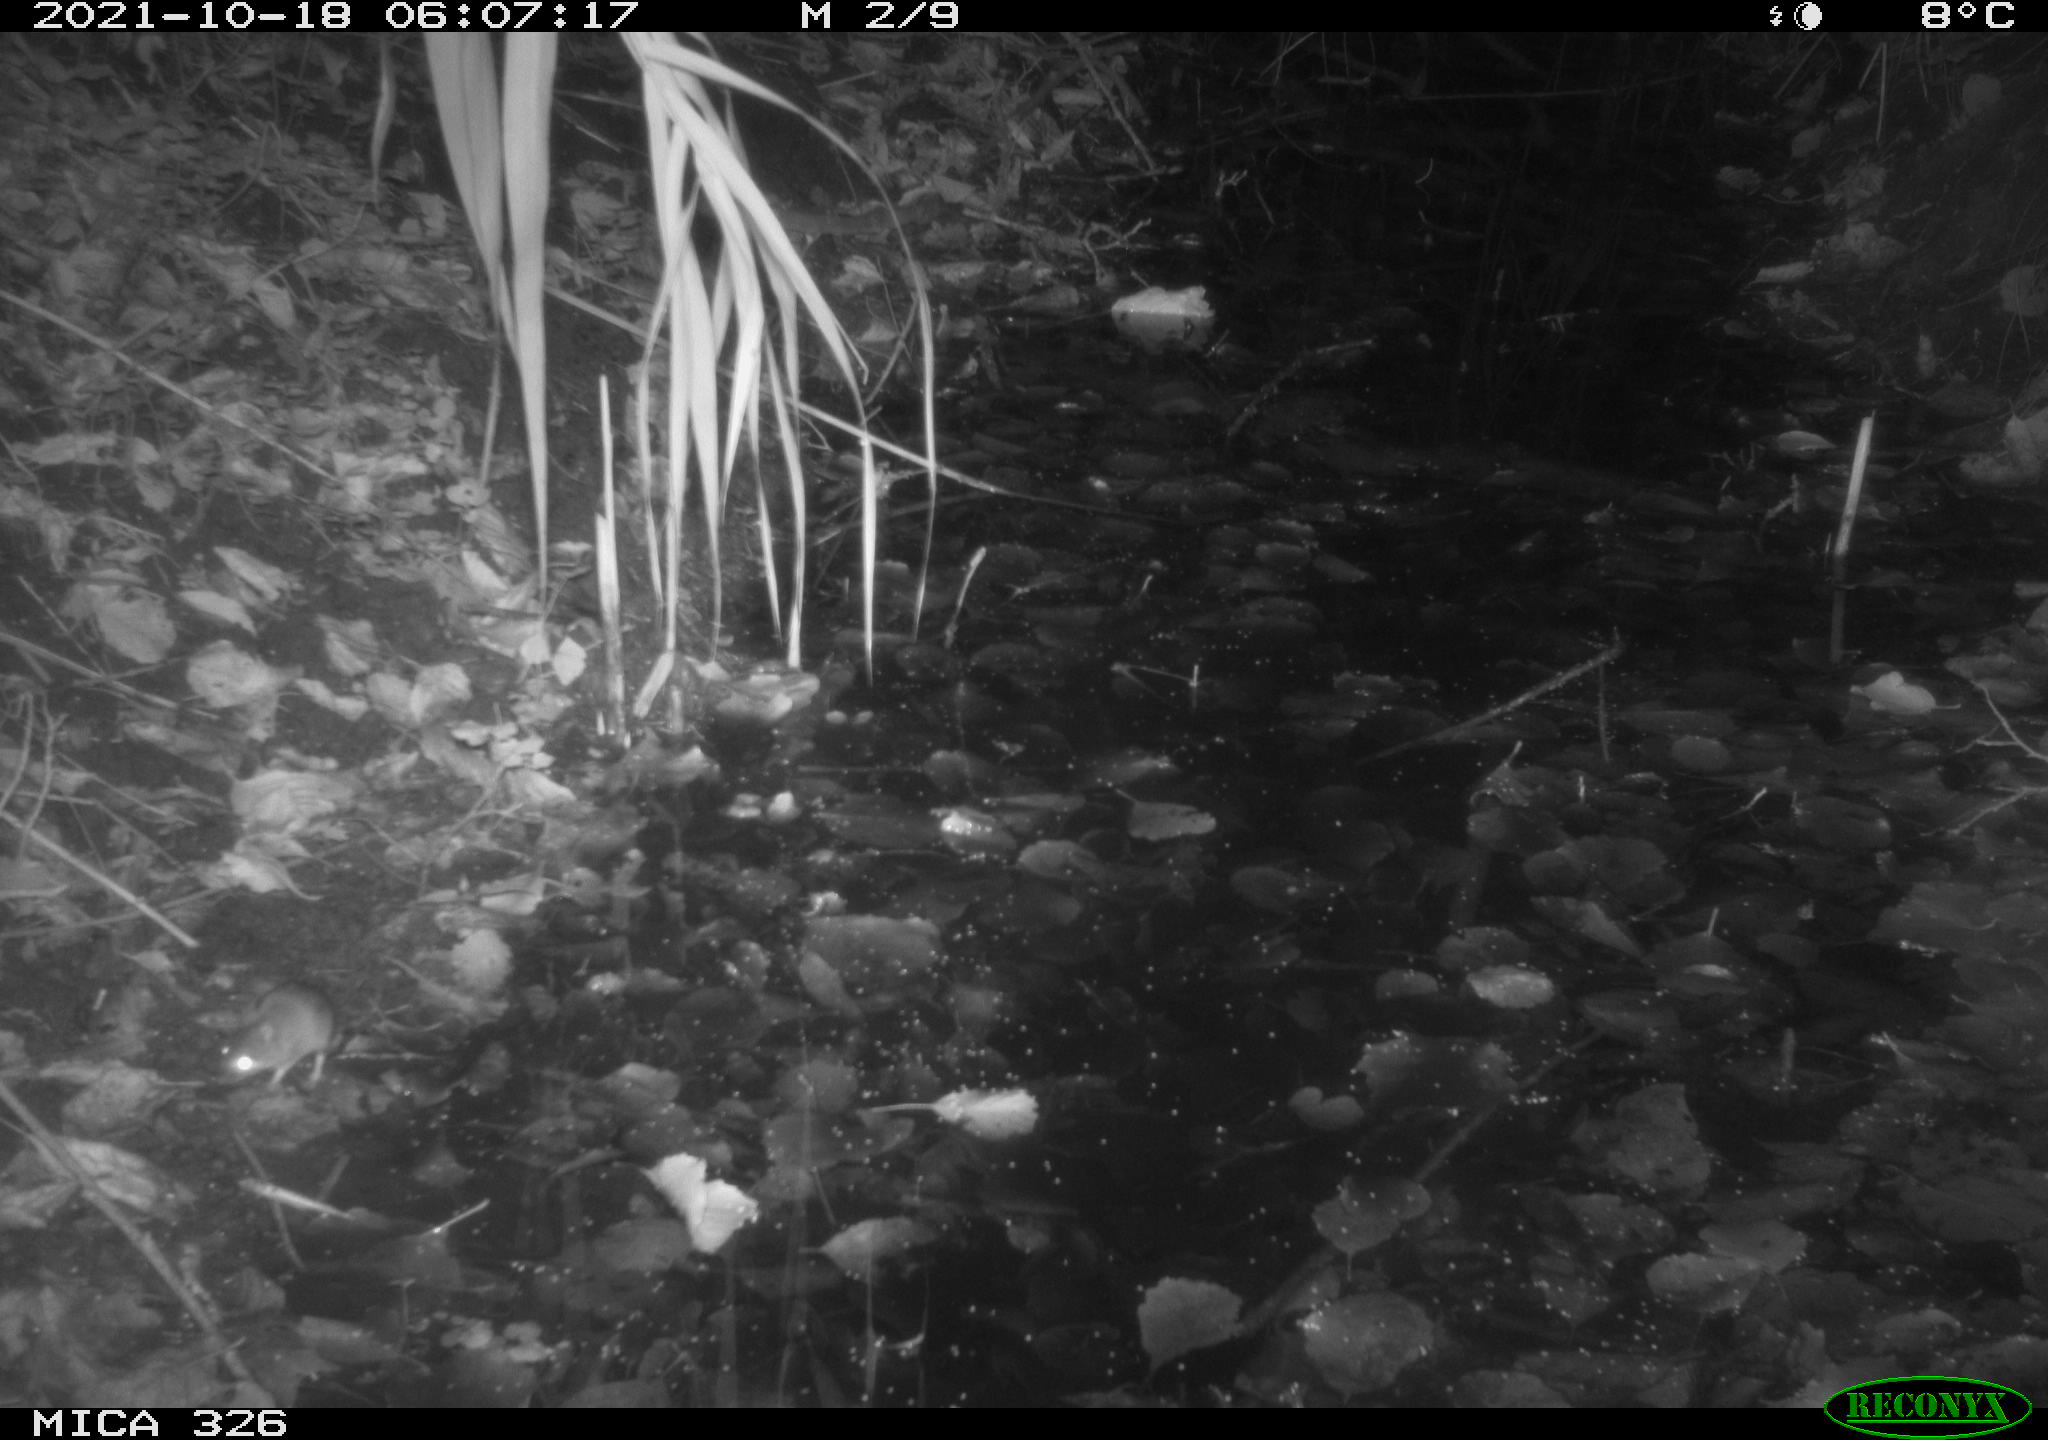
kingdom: Animalia
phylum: Chordata
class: Mammalia
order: Rodentia
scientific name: Rodentia
